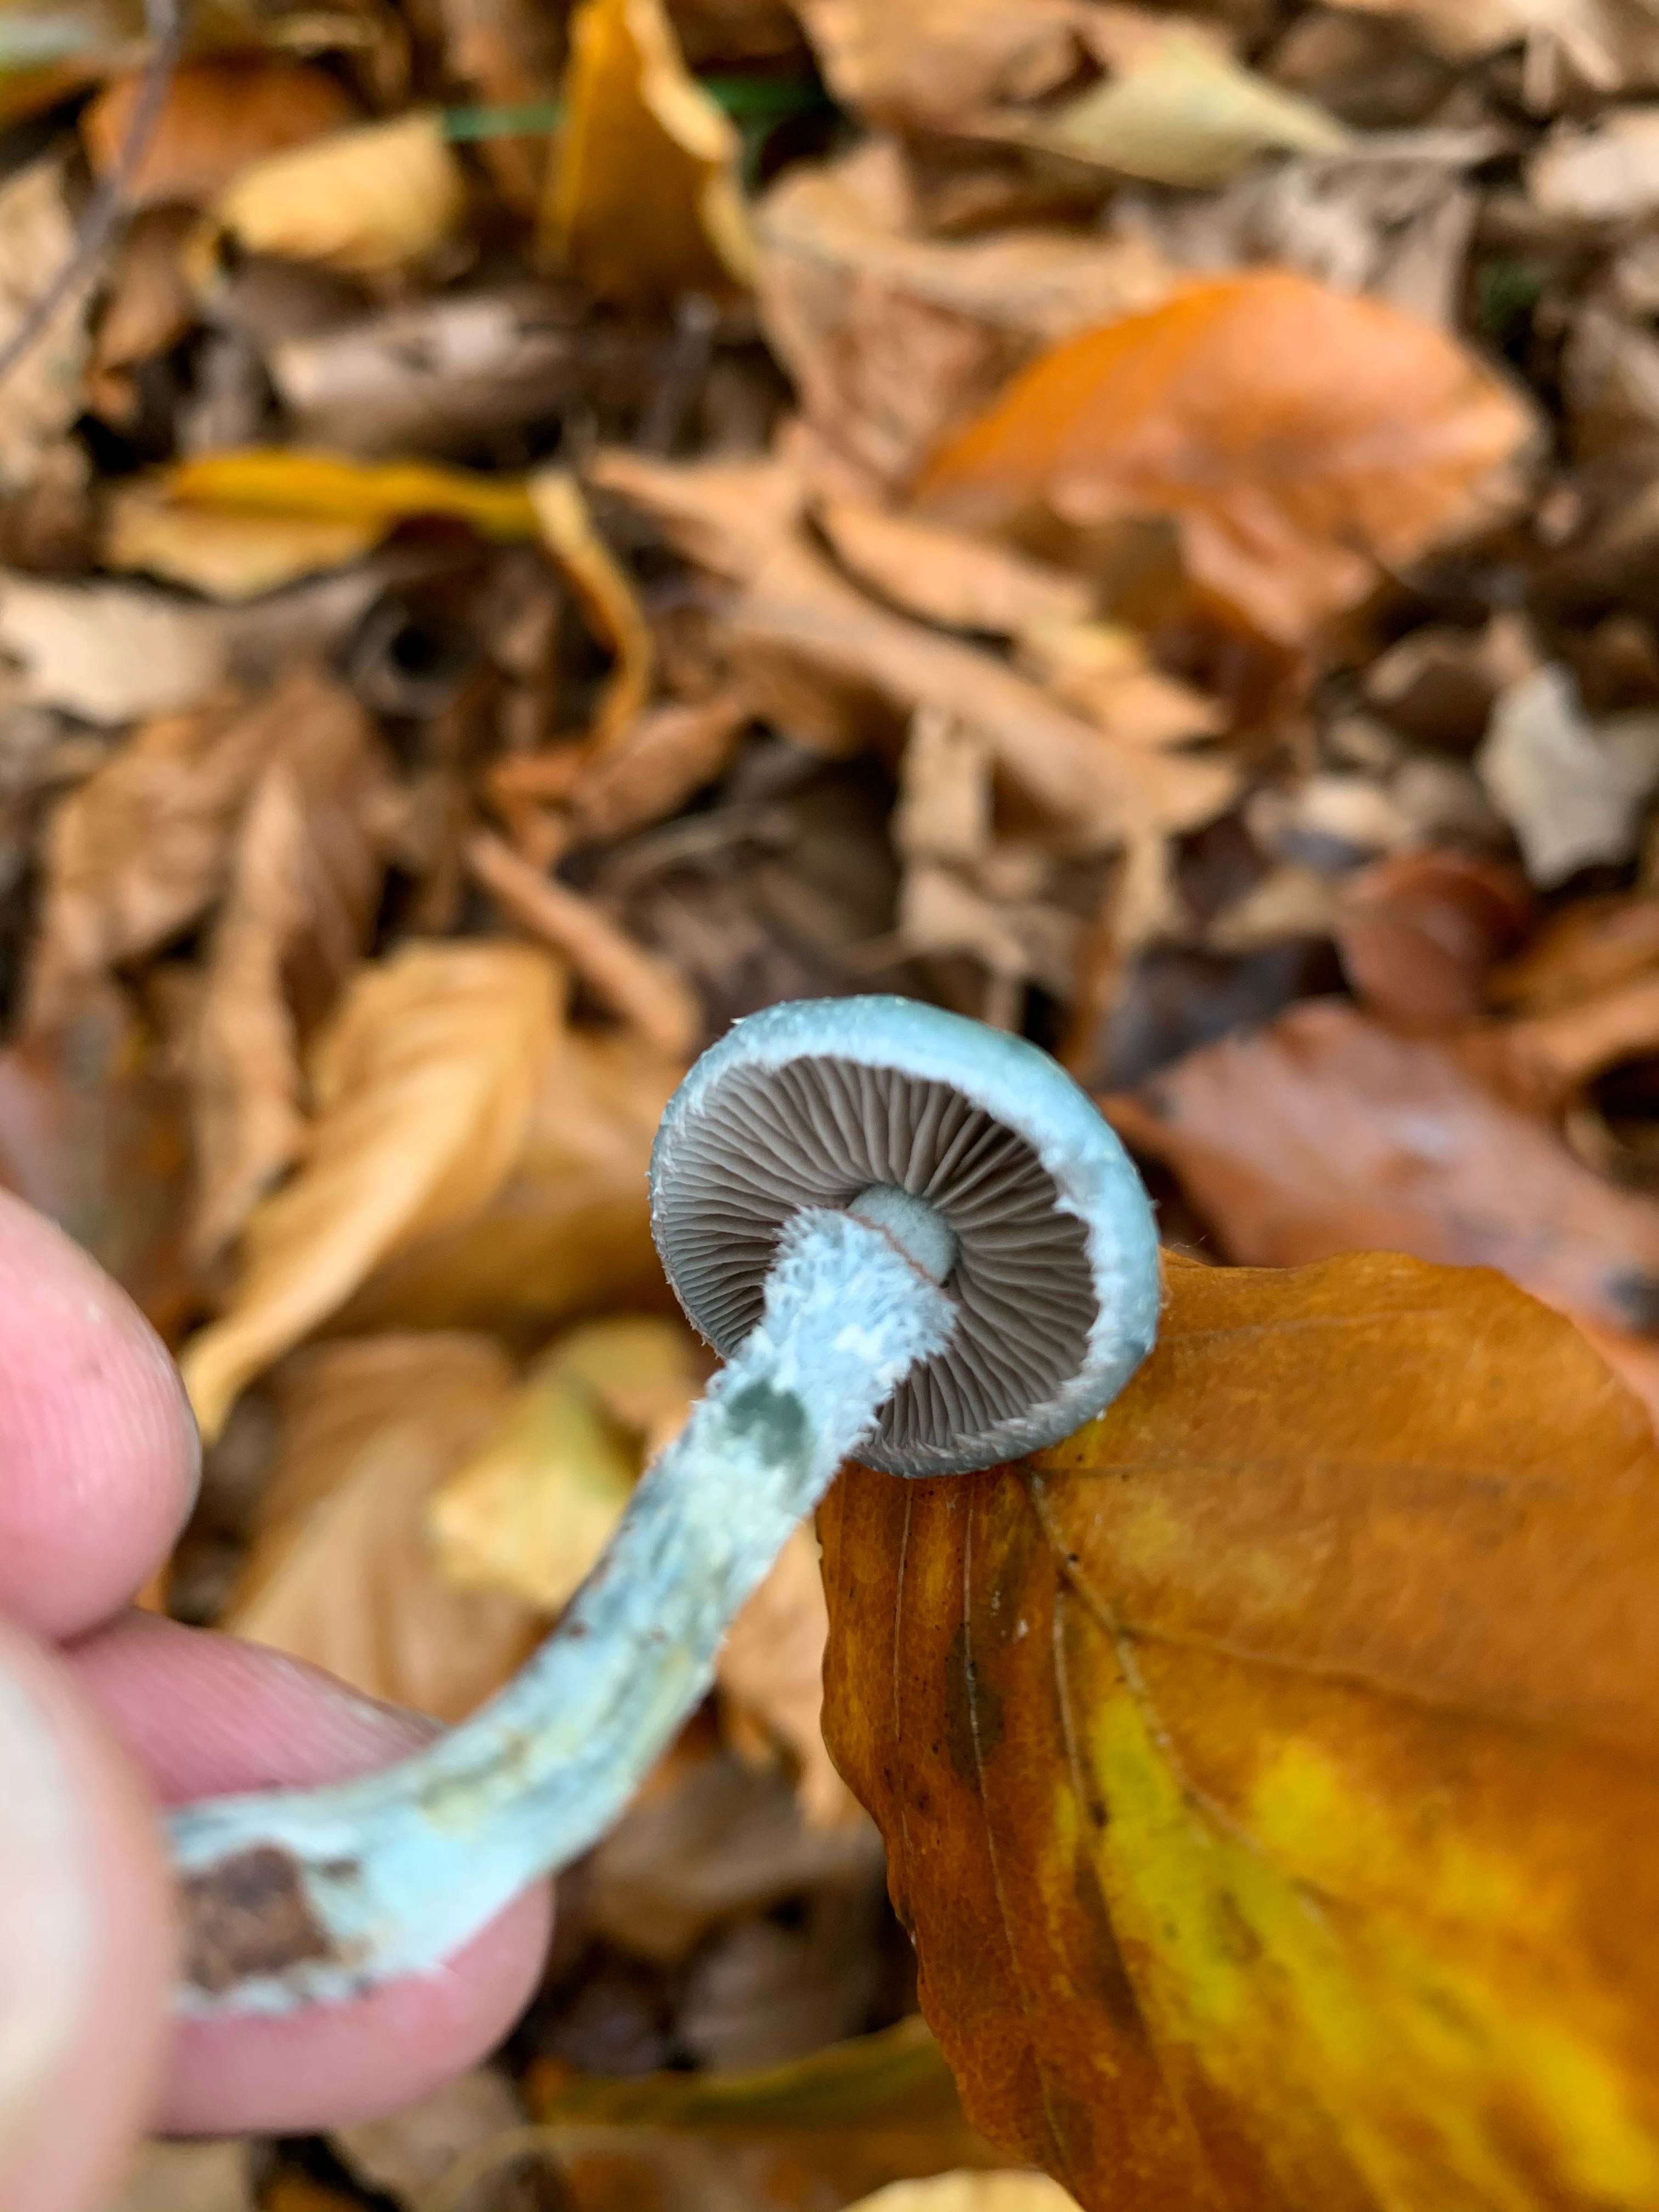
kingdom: Fungi
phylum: Basidiomycota
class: Agaricomycetes
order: Agaricales
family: Strophariaceae
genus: Stropharia
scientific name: Stropharia cyanea
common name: blågrøn bredblad
